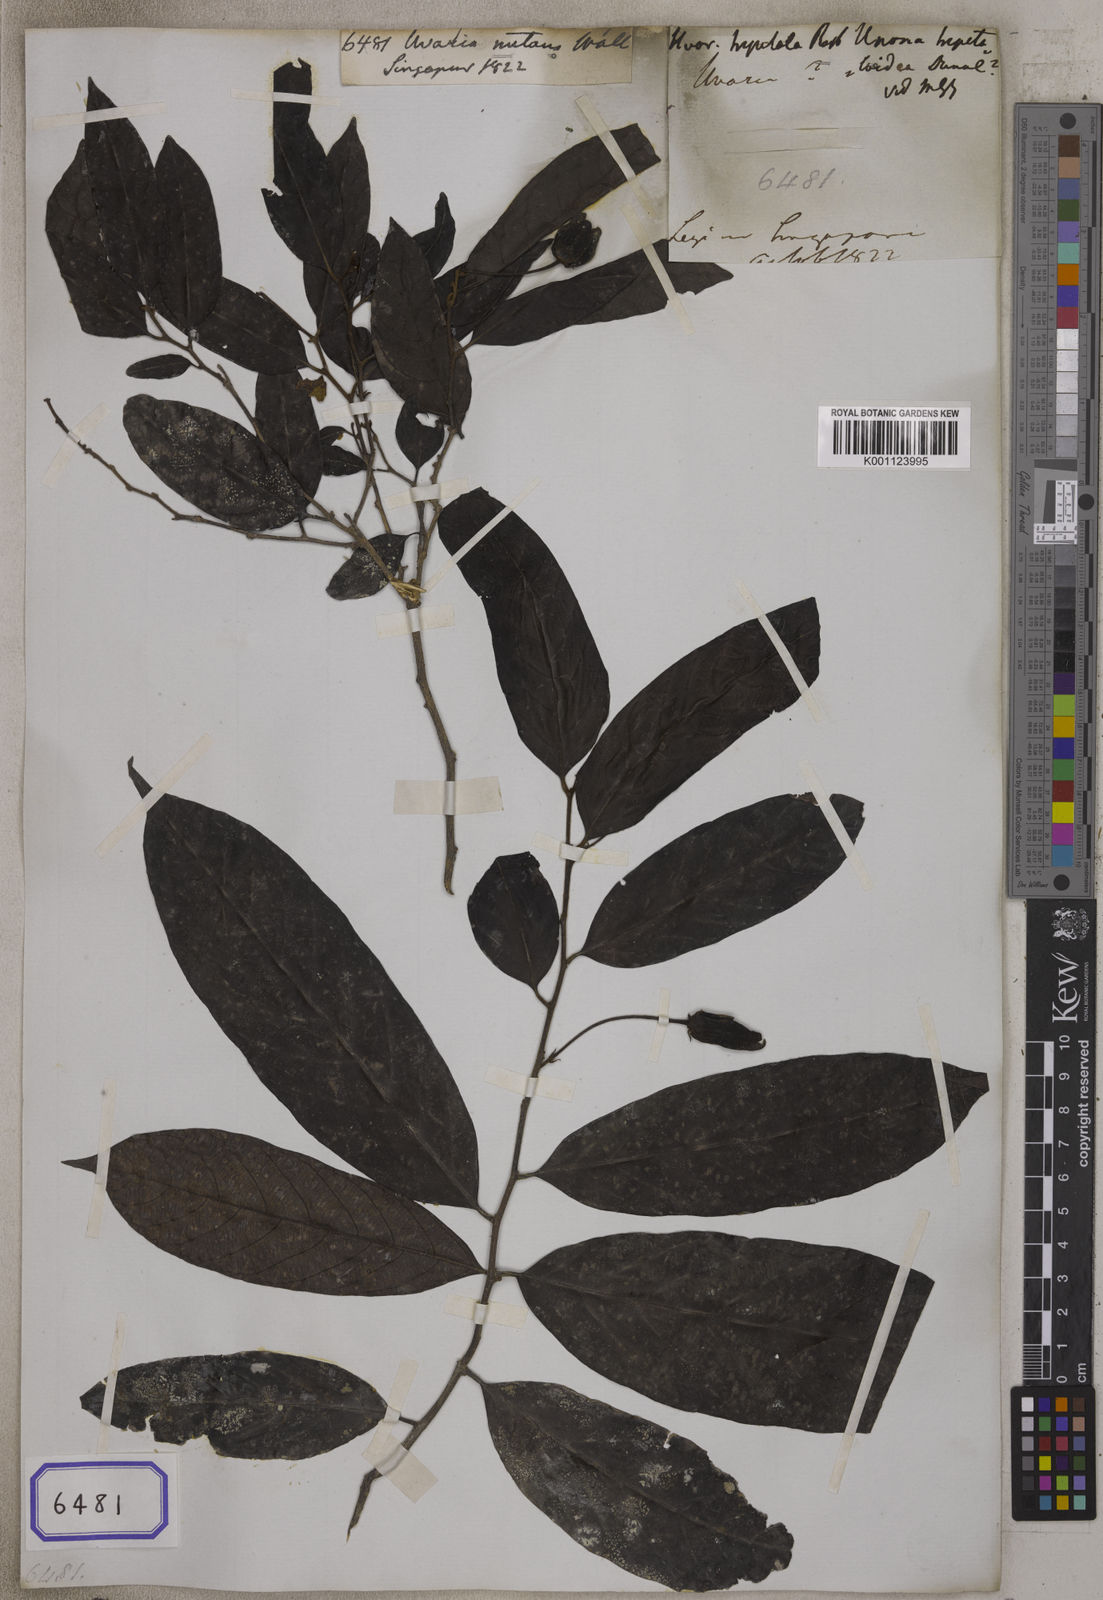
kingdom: Plantae
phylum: Tracheophyta
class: Magnoliopsida
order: Magnoliales
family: Annonaceae
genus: Phaeanthus
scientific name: Phaeanthus intermedius
